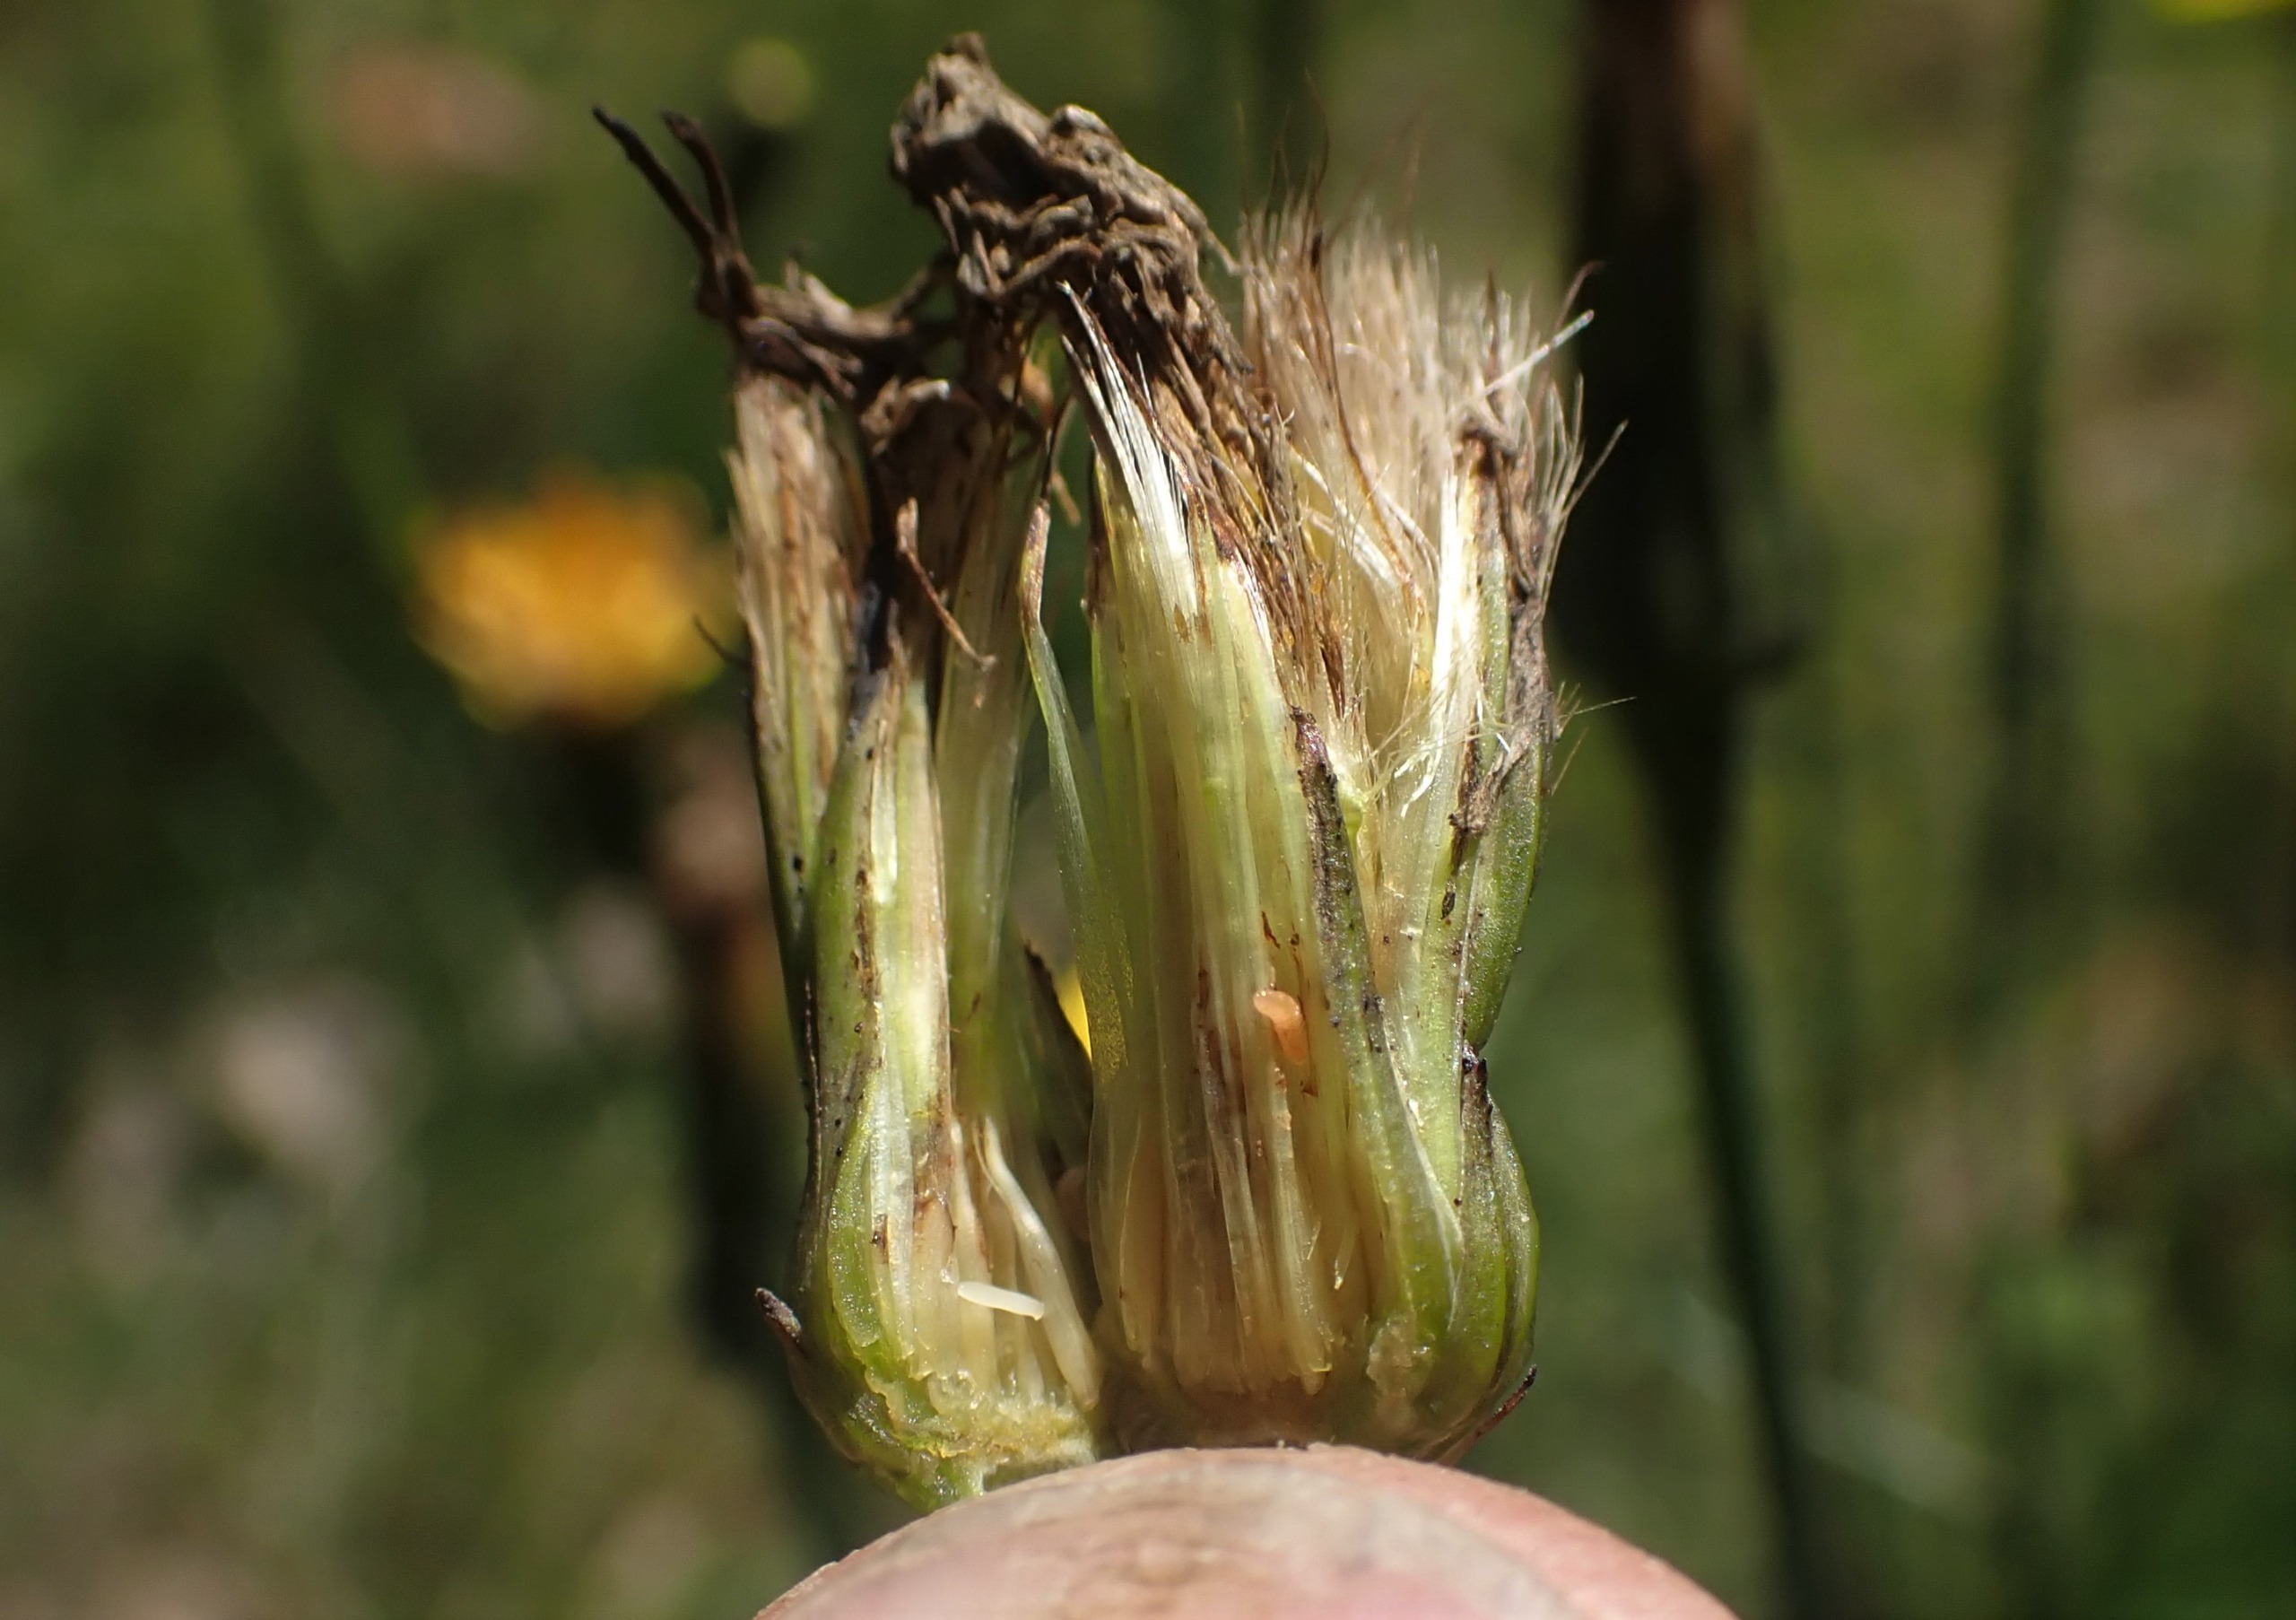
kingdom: Animalia
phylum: Arthropoda
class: Insecta
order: Diptera
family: Cecidomyiidae
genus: Jaapiella
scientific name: Jaapiella hypochoeridis
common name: Orange kongepengalmyg
